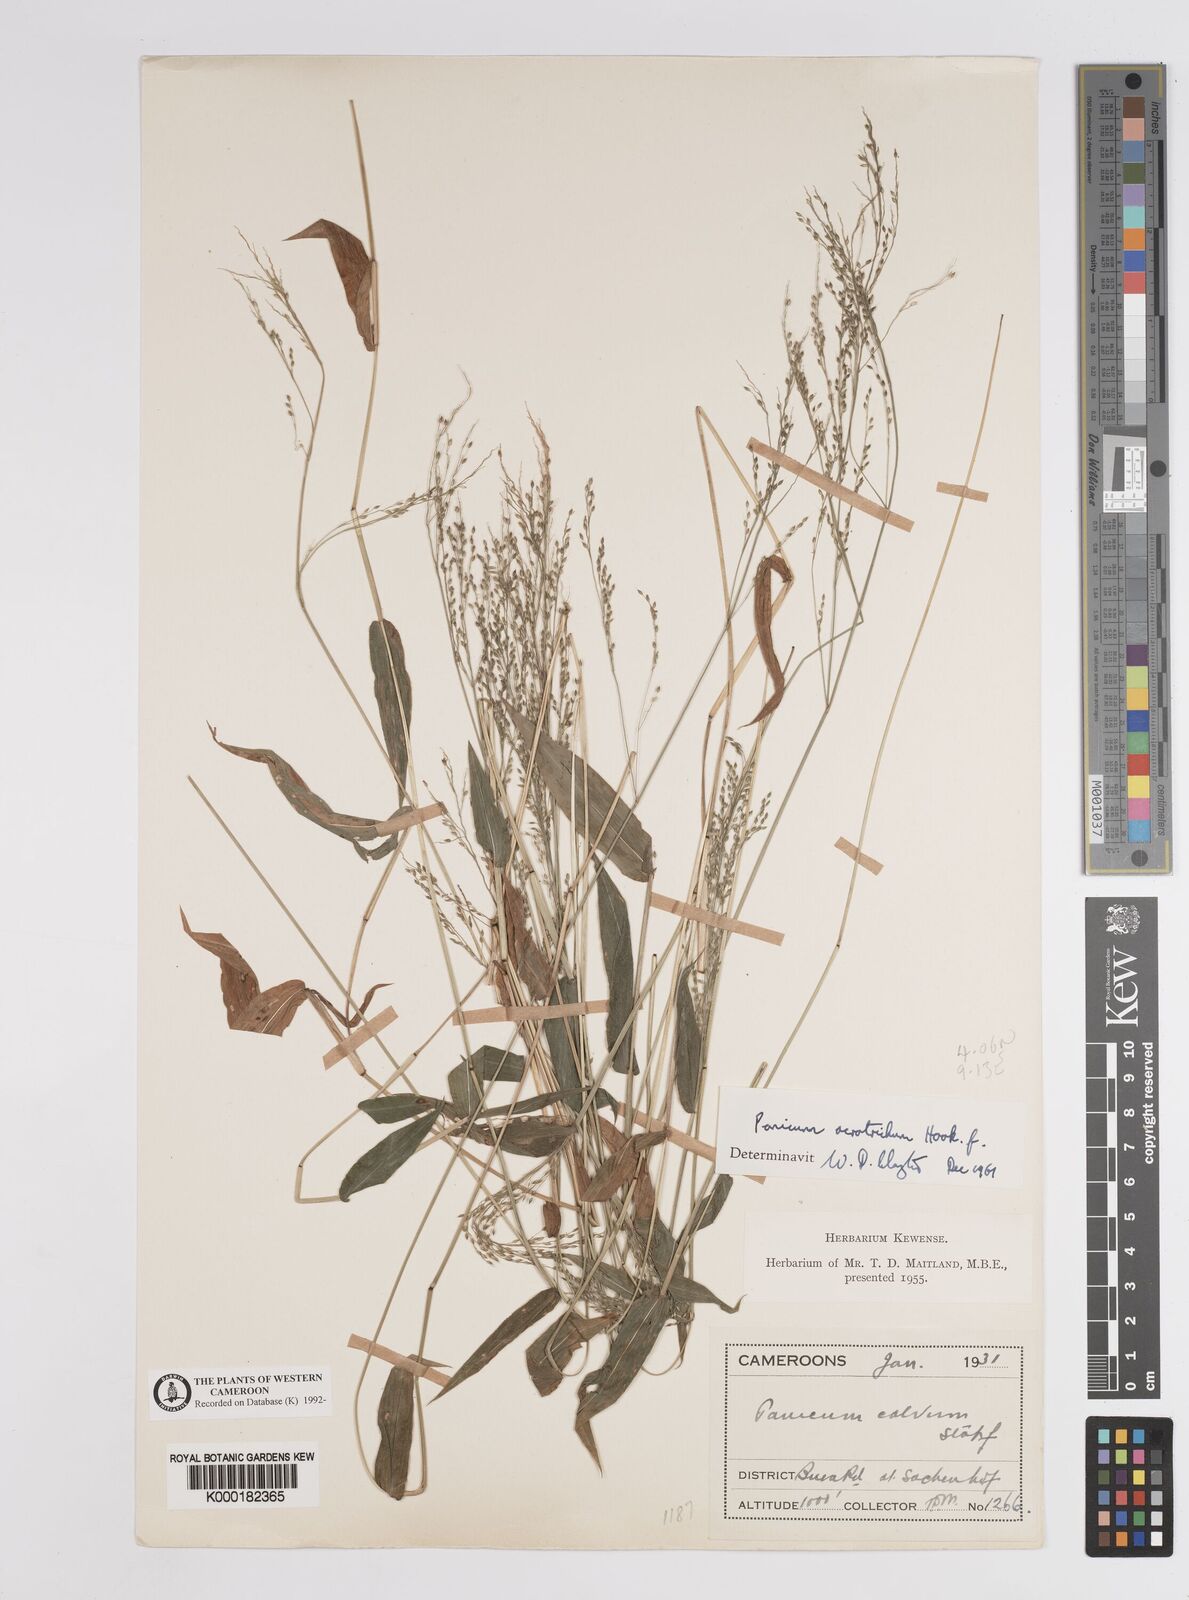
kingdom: Plantae
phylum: Tracheophyta
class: Liliopsida
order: Poales
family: Poaceae
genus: Panicum
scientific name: Panicum acrotrichum
